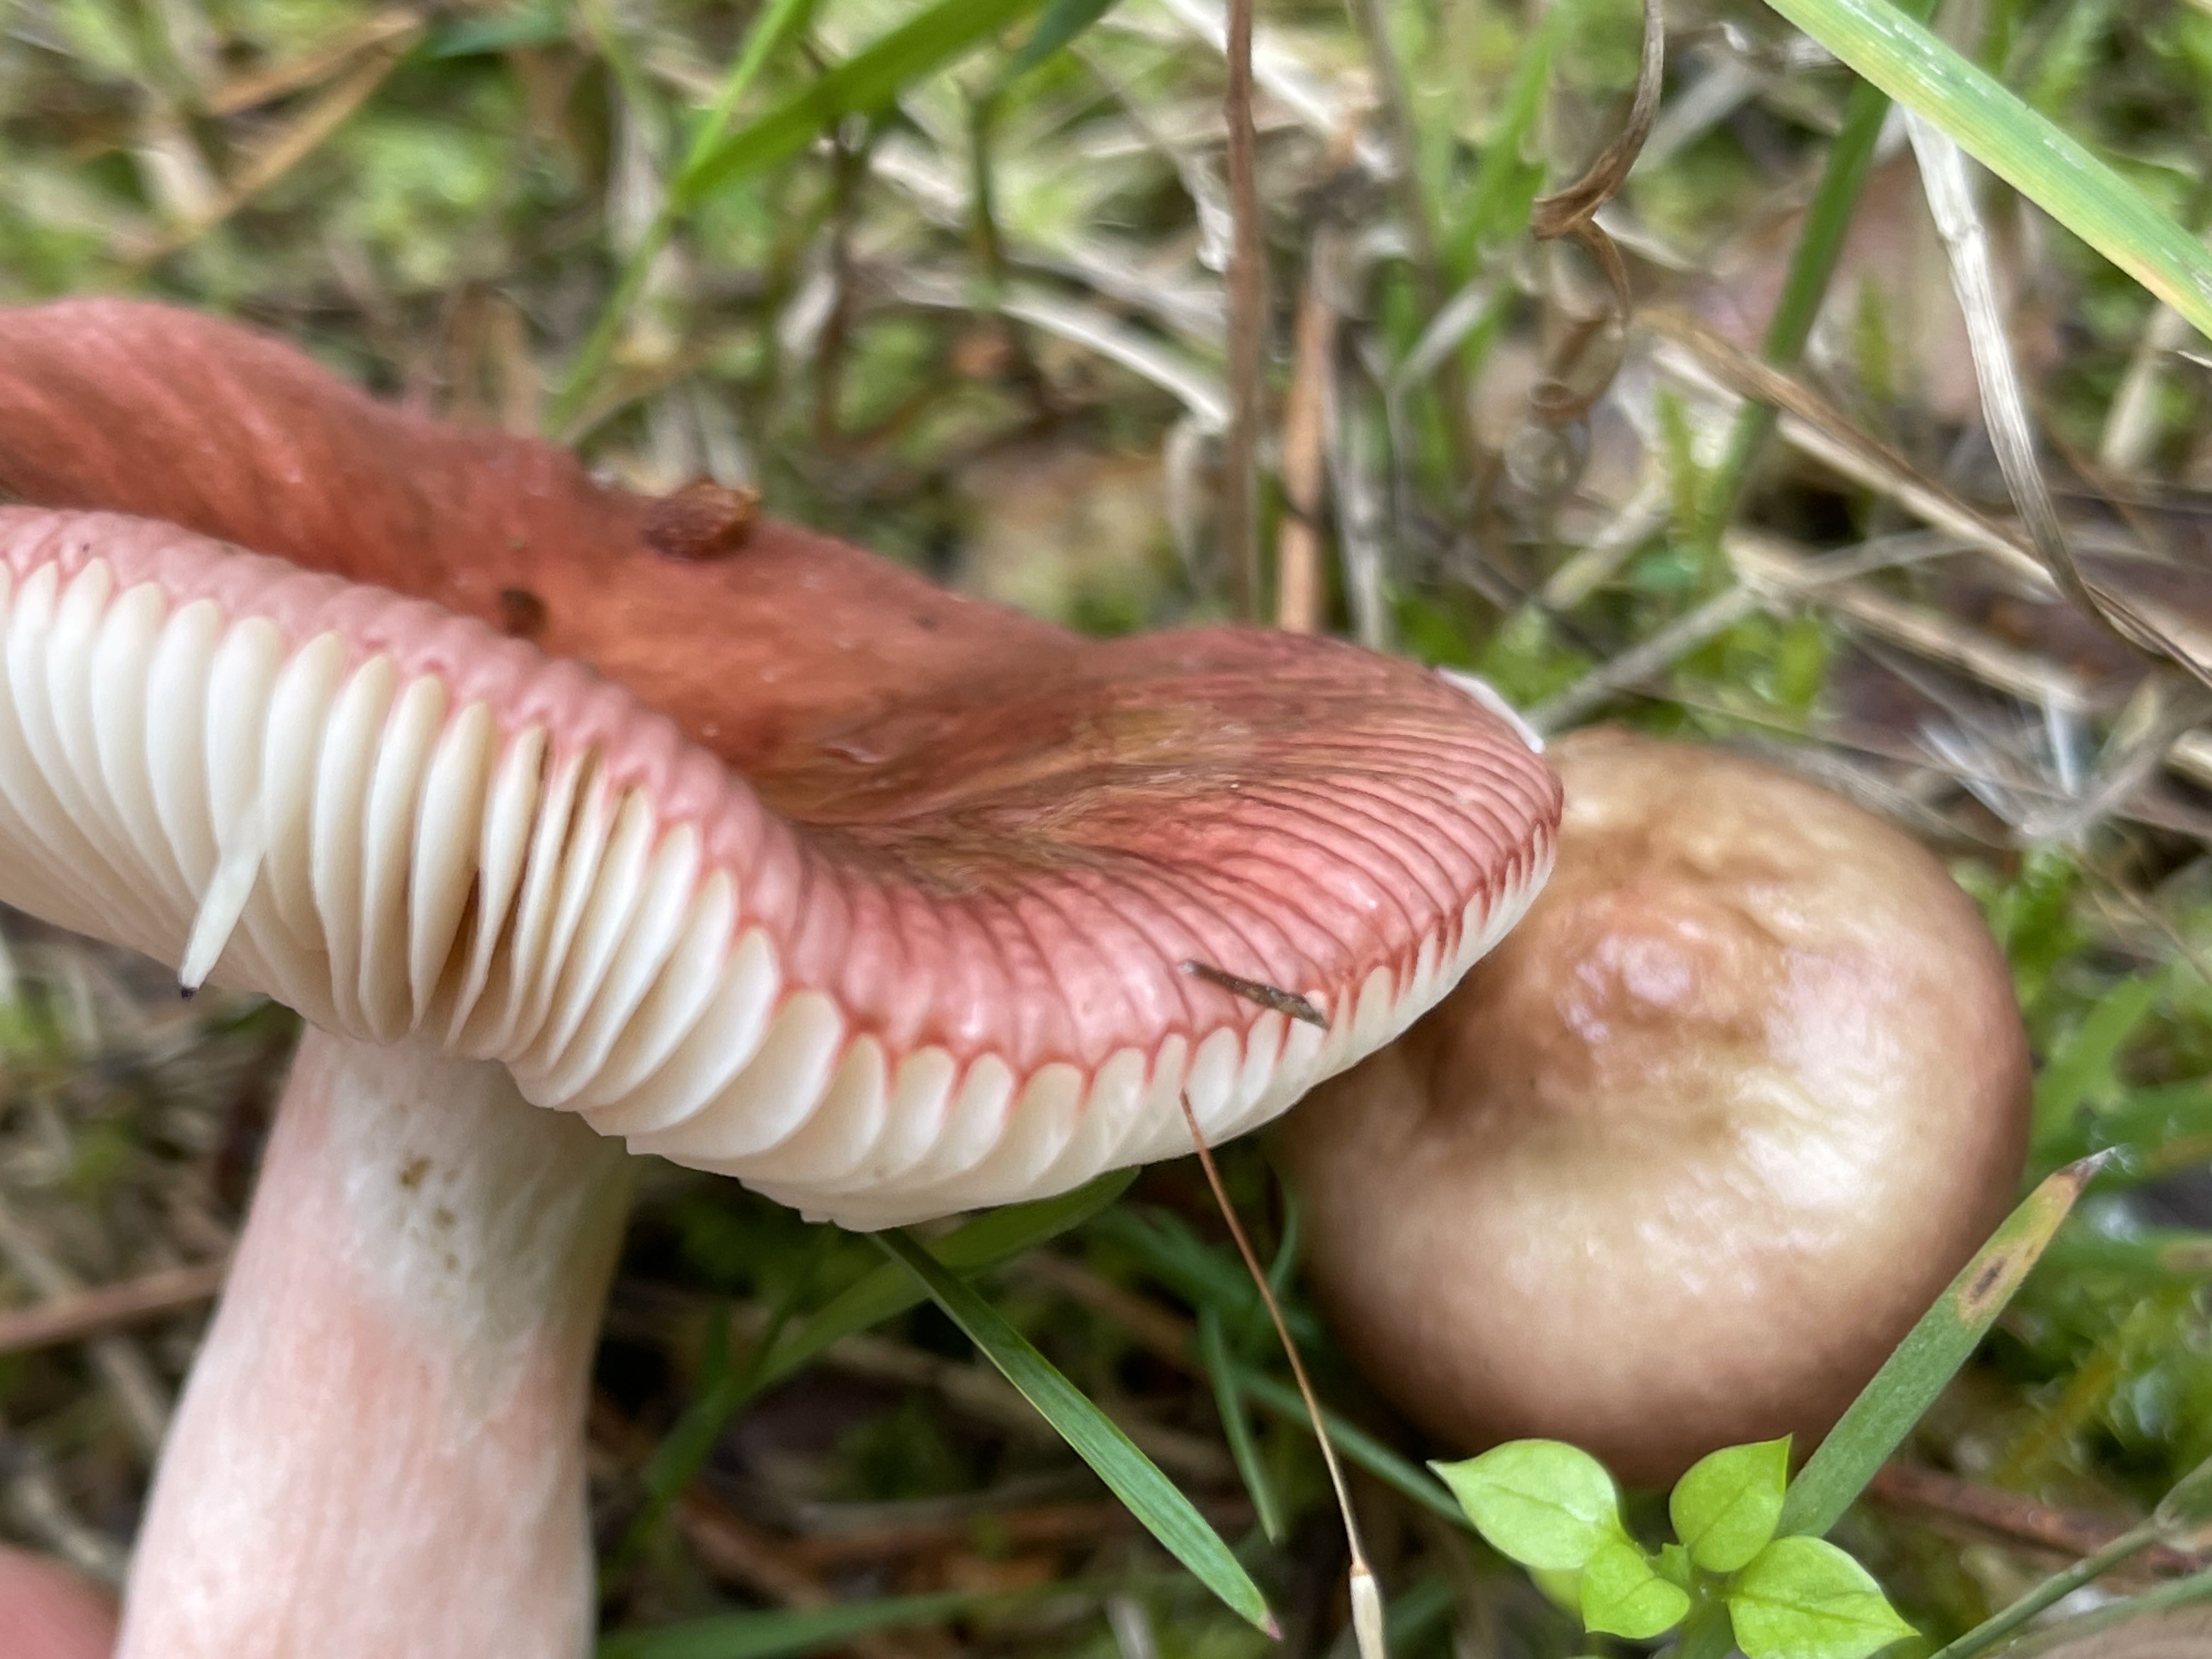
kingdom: Fungi
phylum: Basidiomycota
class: Agaricomycetes
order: Russulales
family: Russulaceae
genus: Russula
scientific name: Russula nitida
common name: året skørhat
